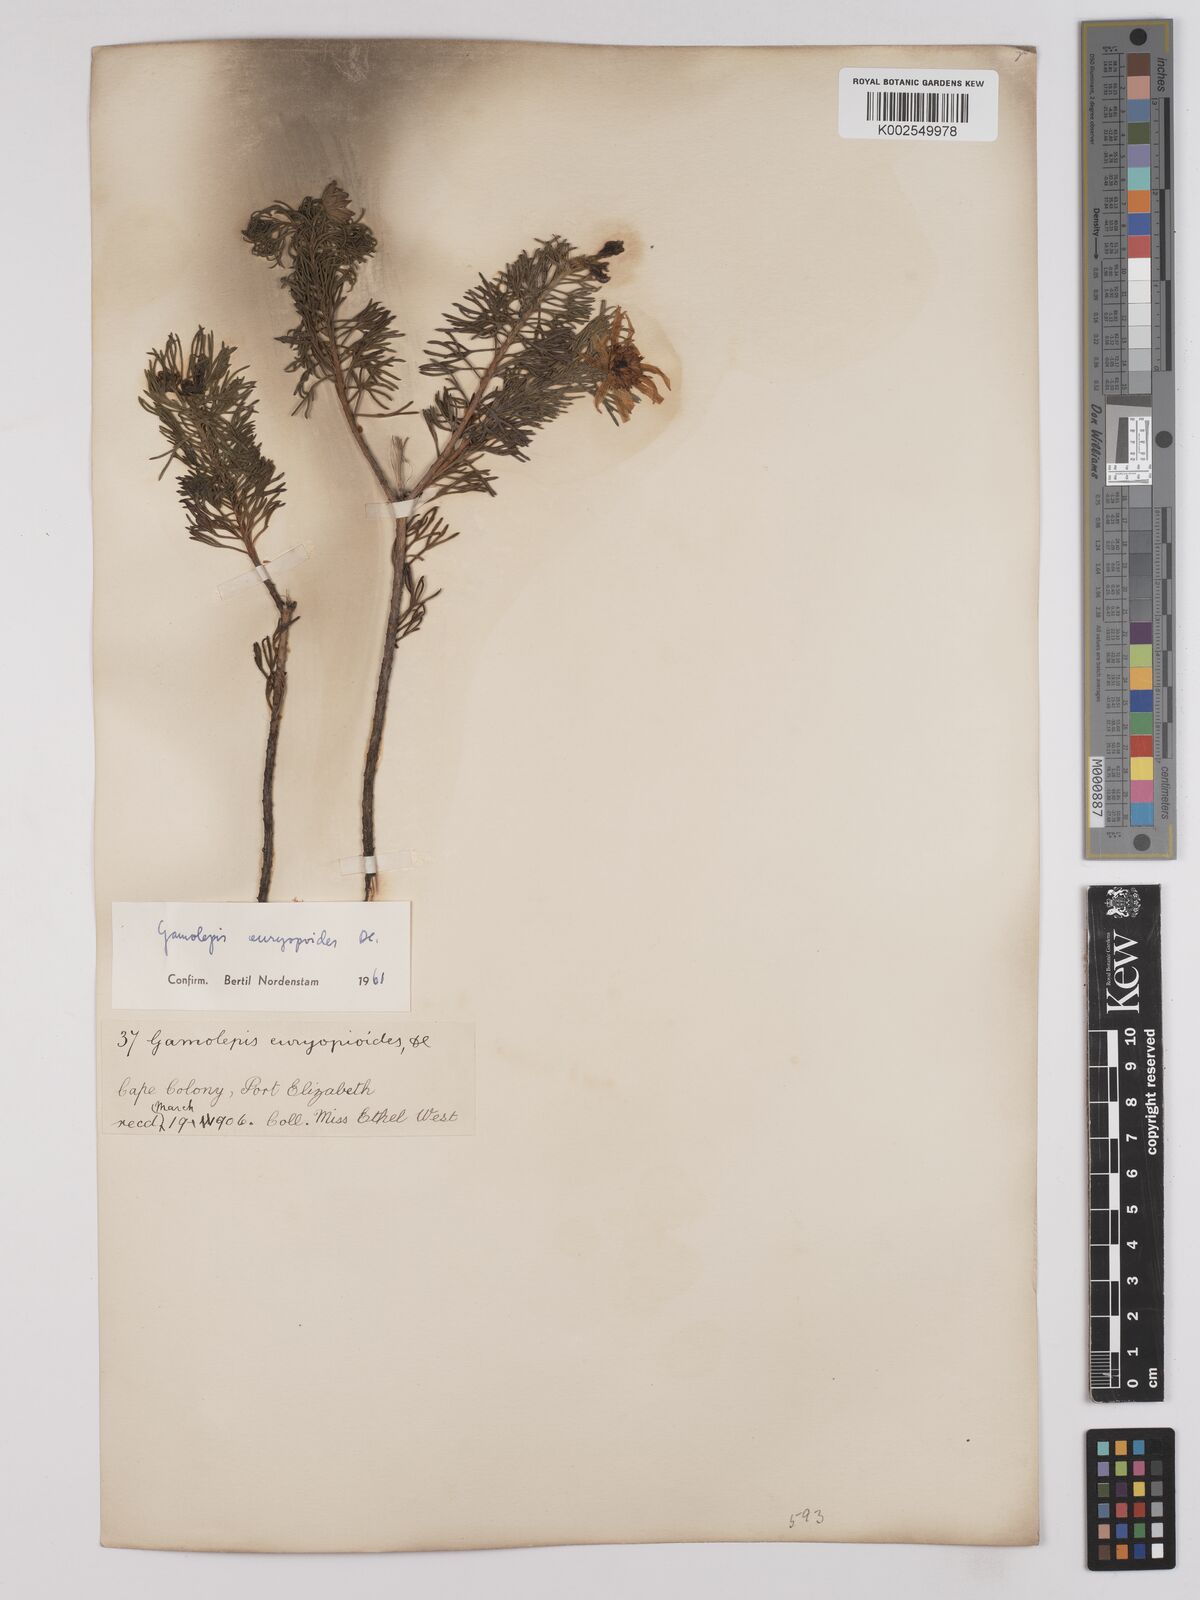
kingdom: Plantae
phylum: Tracheophyta
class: Magnoliopsida
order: Asterales
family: Asteraceae
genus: Euryops
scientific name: Euryops euryopoides
